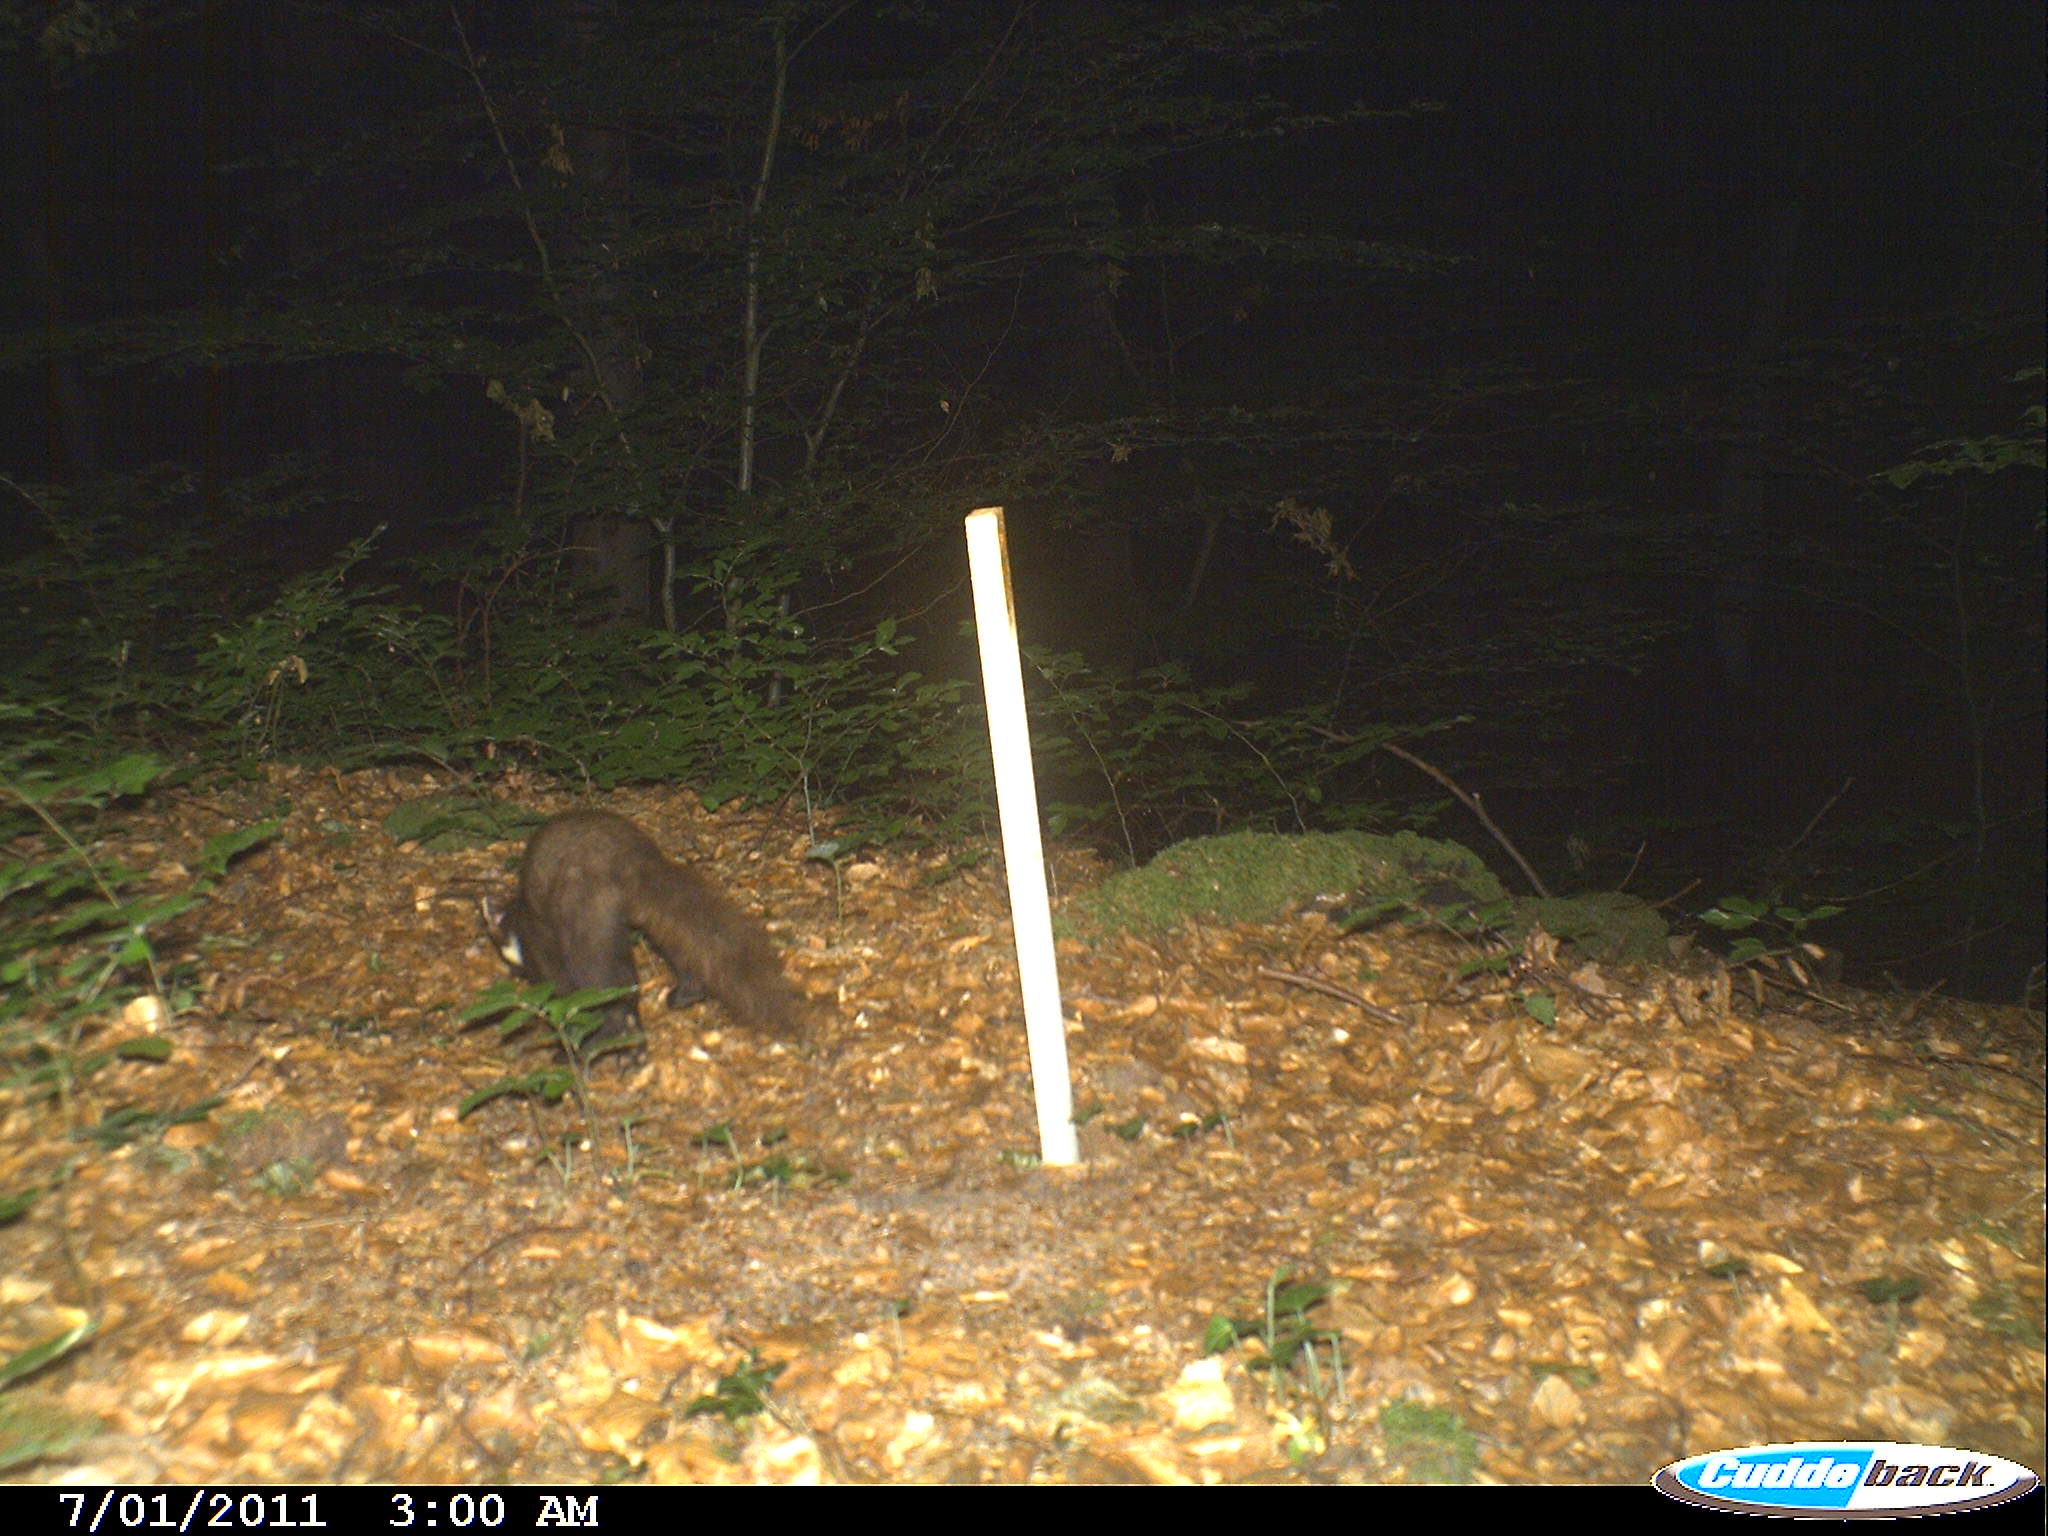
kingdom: Animalia
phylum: Chordata
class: Mammalia
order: Carnivora
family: Mustelidae
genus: Martes
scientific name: Martes martes
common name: European pine marten
